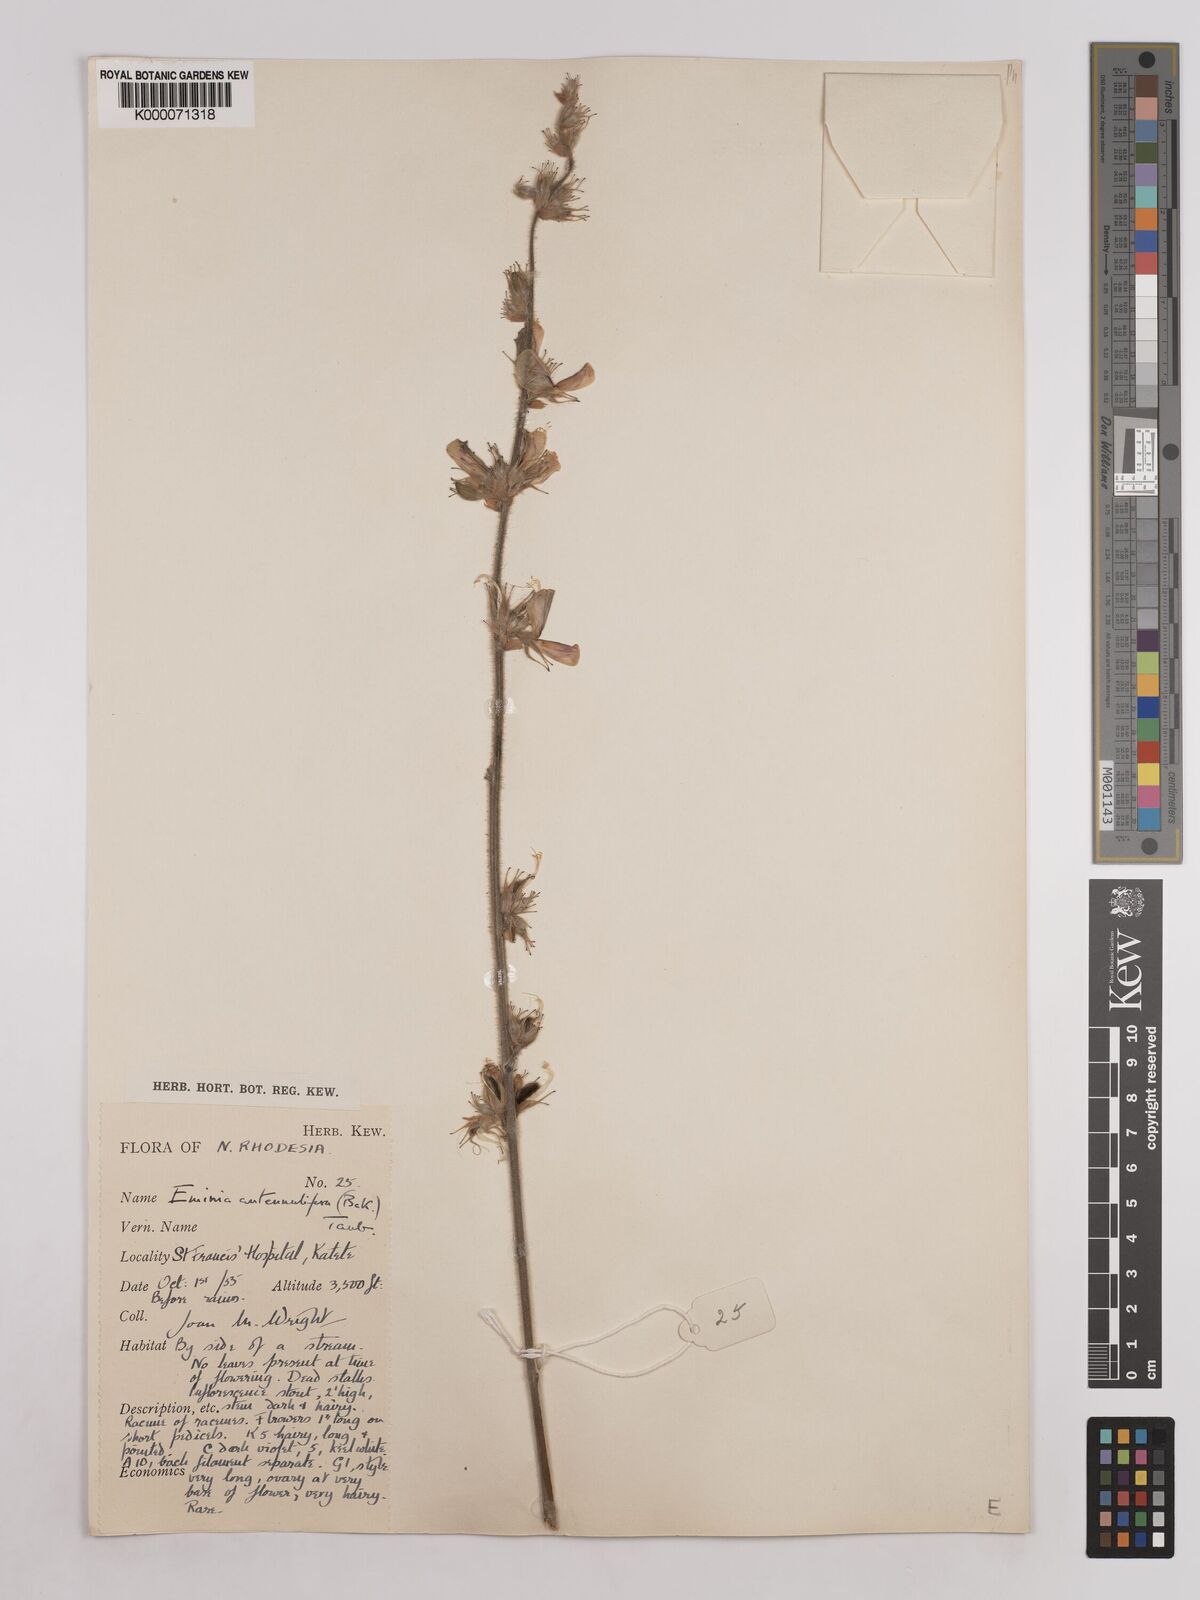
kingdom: Plantae
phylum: Tracheophyta
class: Magnoliopsida
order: Fabales
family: Fabaceae
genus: Eminia
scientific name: Eminia antennulifera
